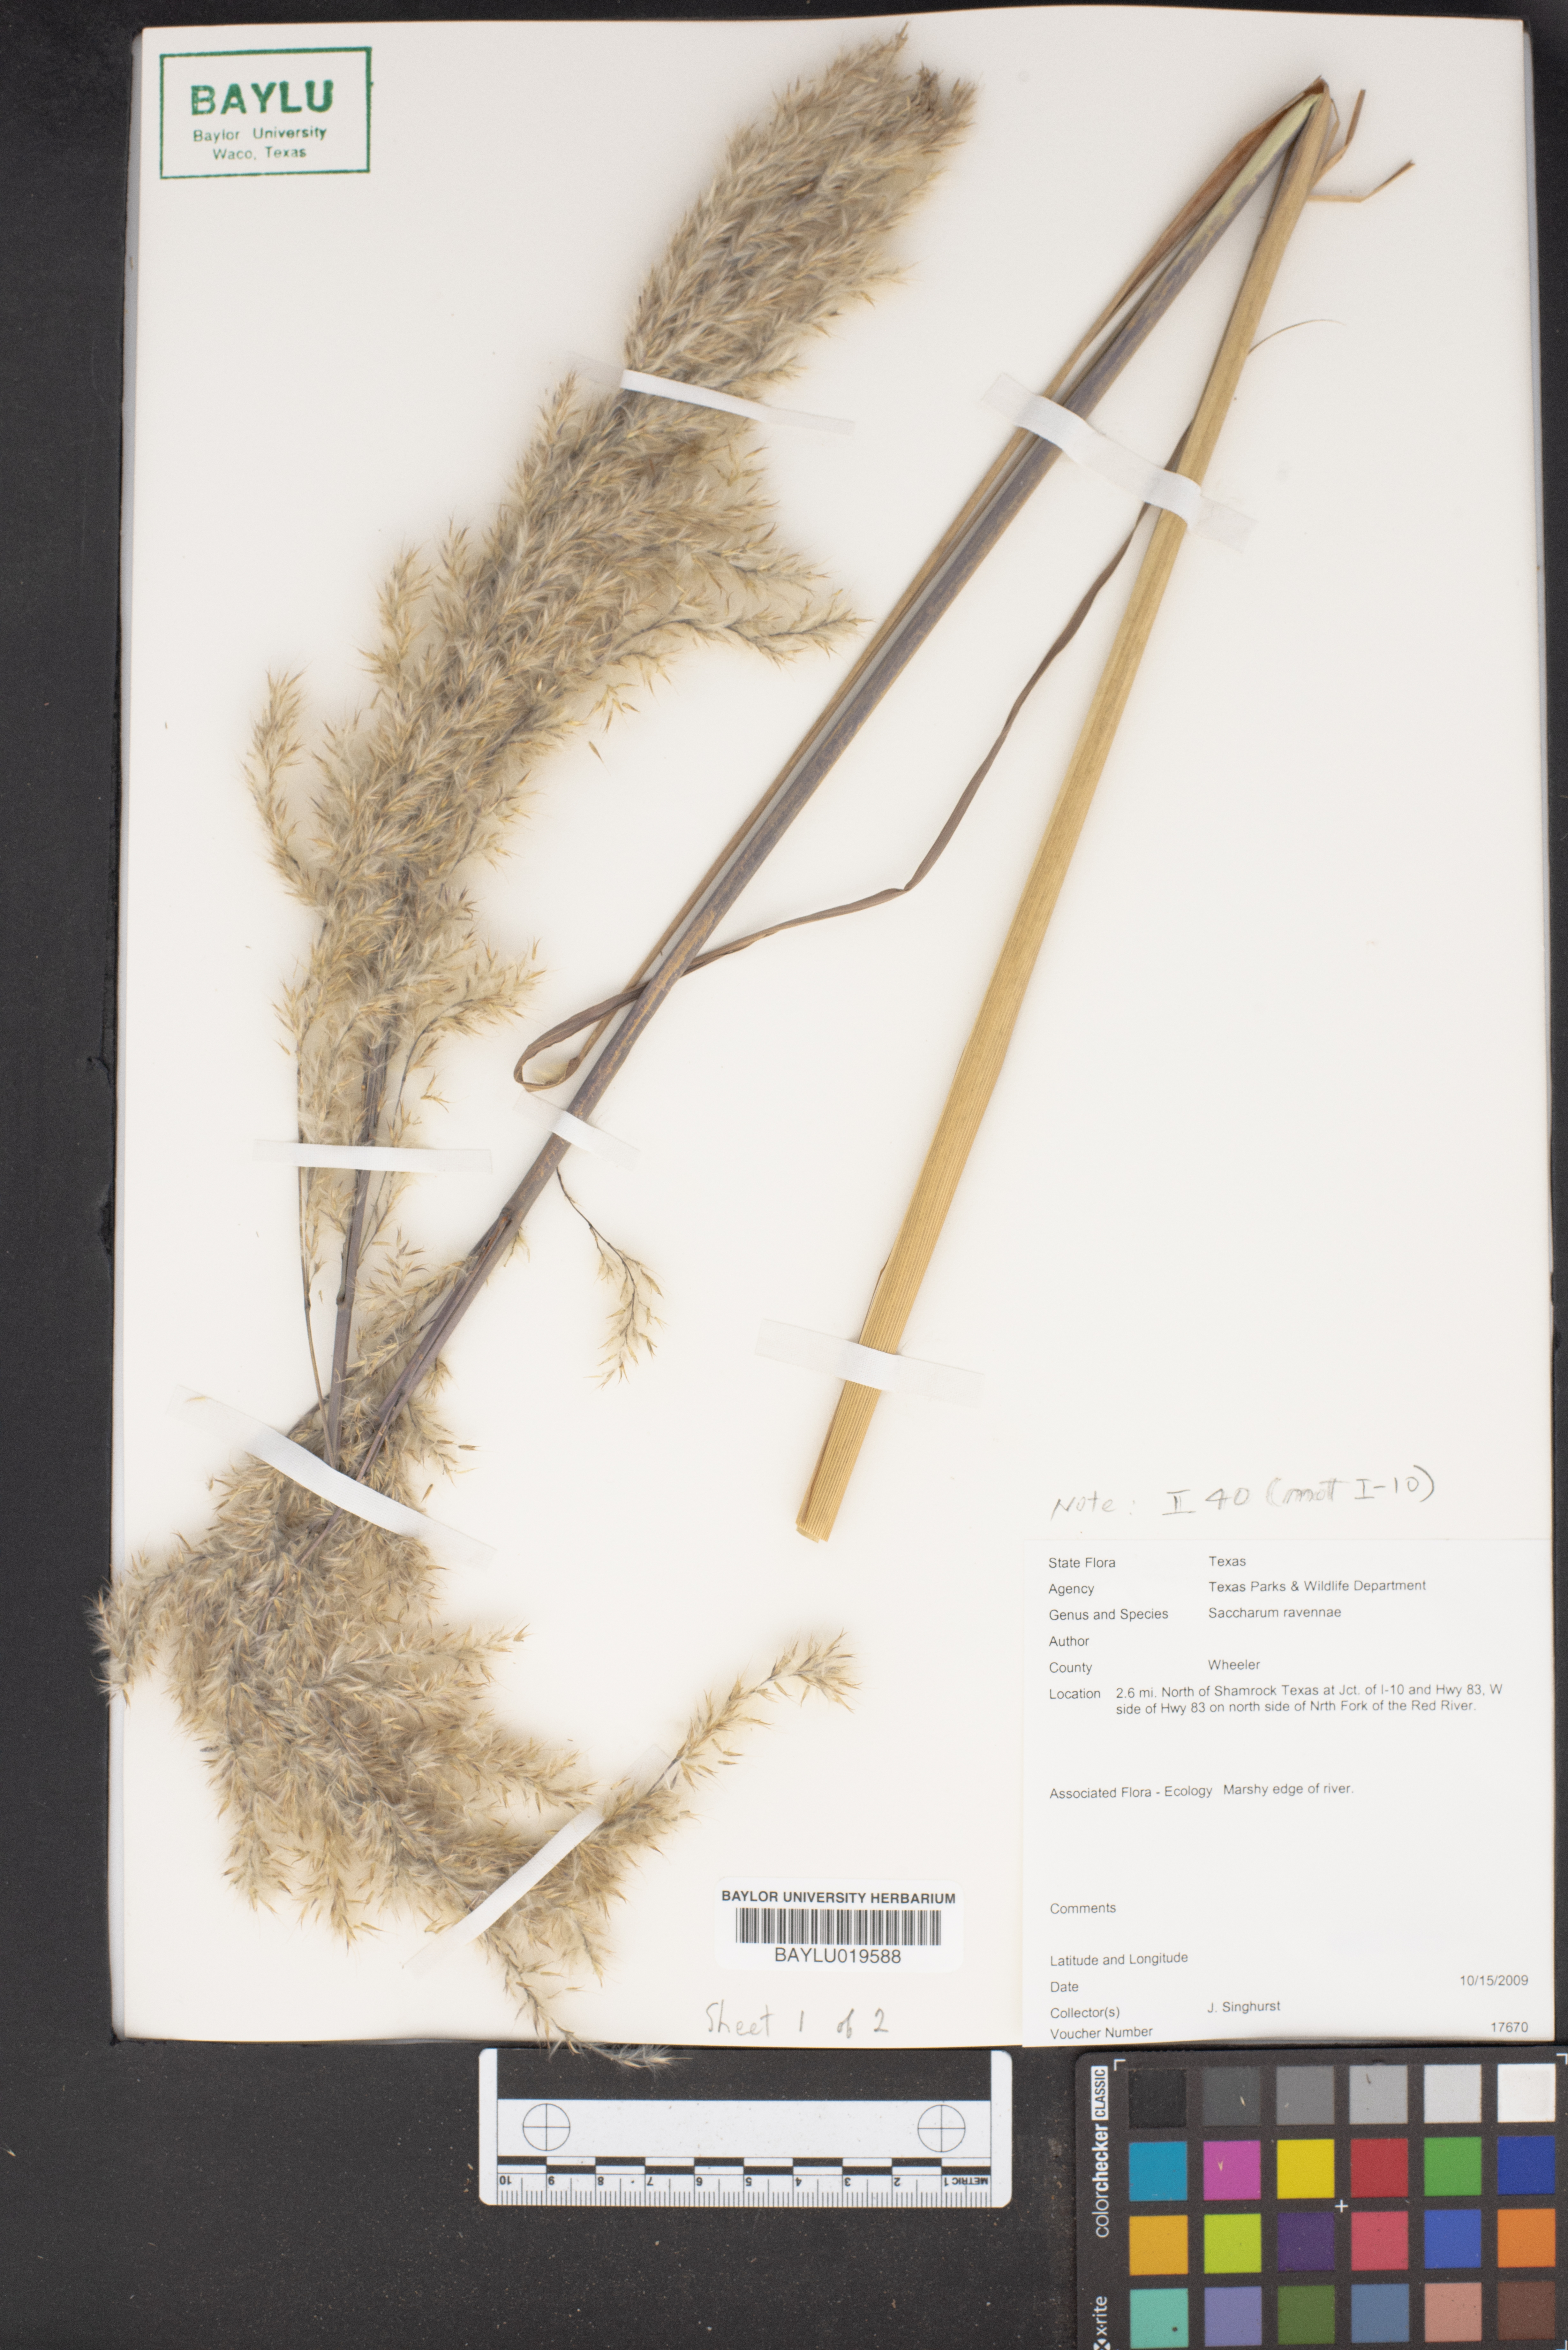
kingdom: Plantae
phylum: Tracheophyta
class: Liliopsida
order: Poales
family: Poaceae
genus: Tripidium
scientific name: Tripidium ravennae
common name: Ravenna grass
